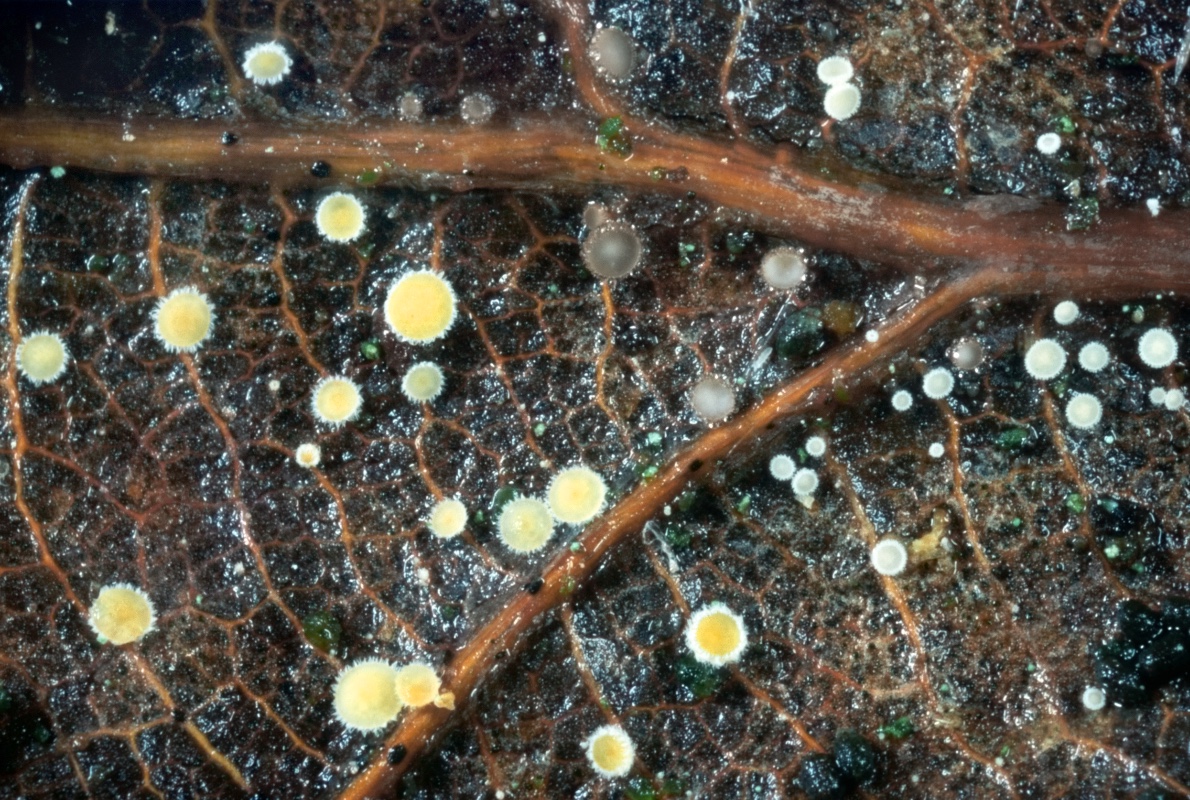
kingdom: Fungi
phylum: Ascomycota
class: Leotiomycetes
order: Helotiales
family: Lachnaceae
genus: Lachnum
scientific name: Lachnum patulum
